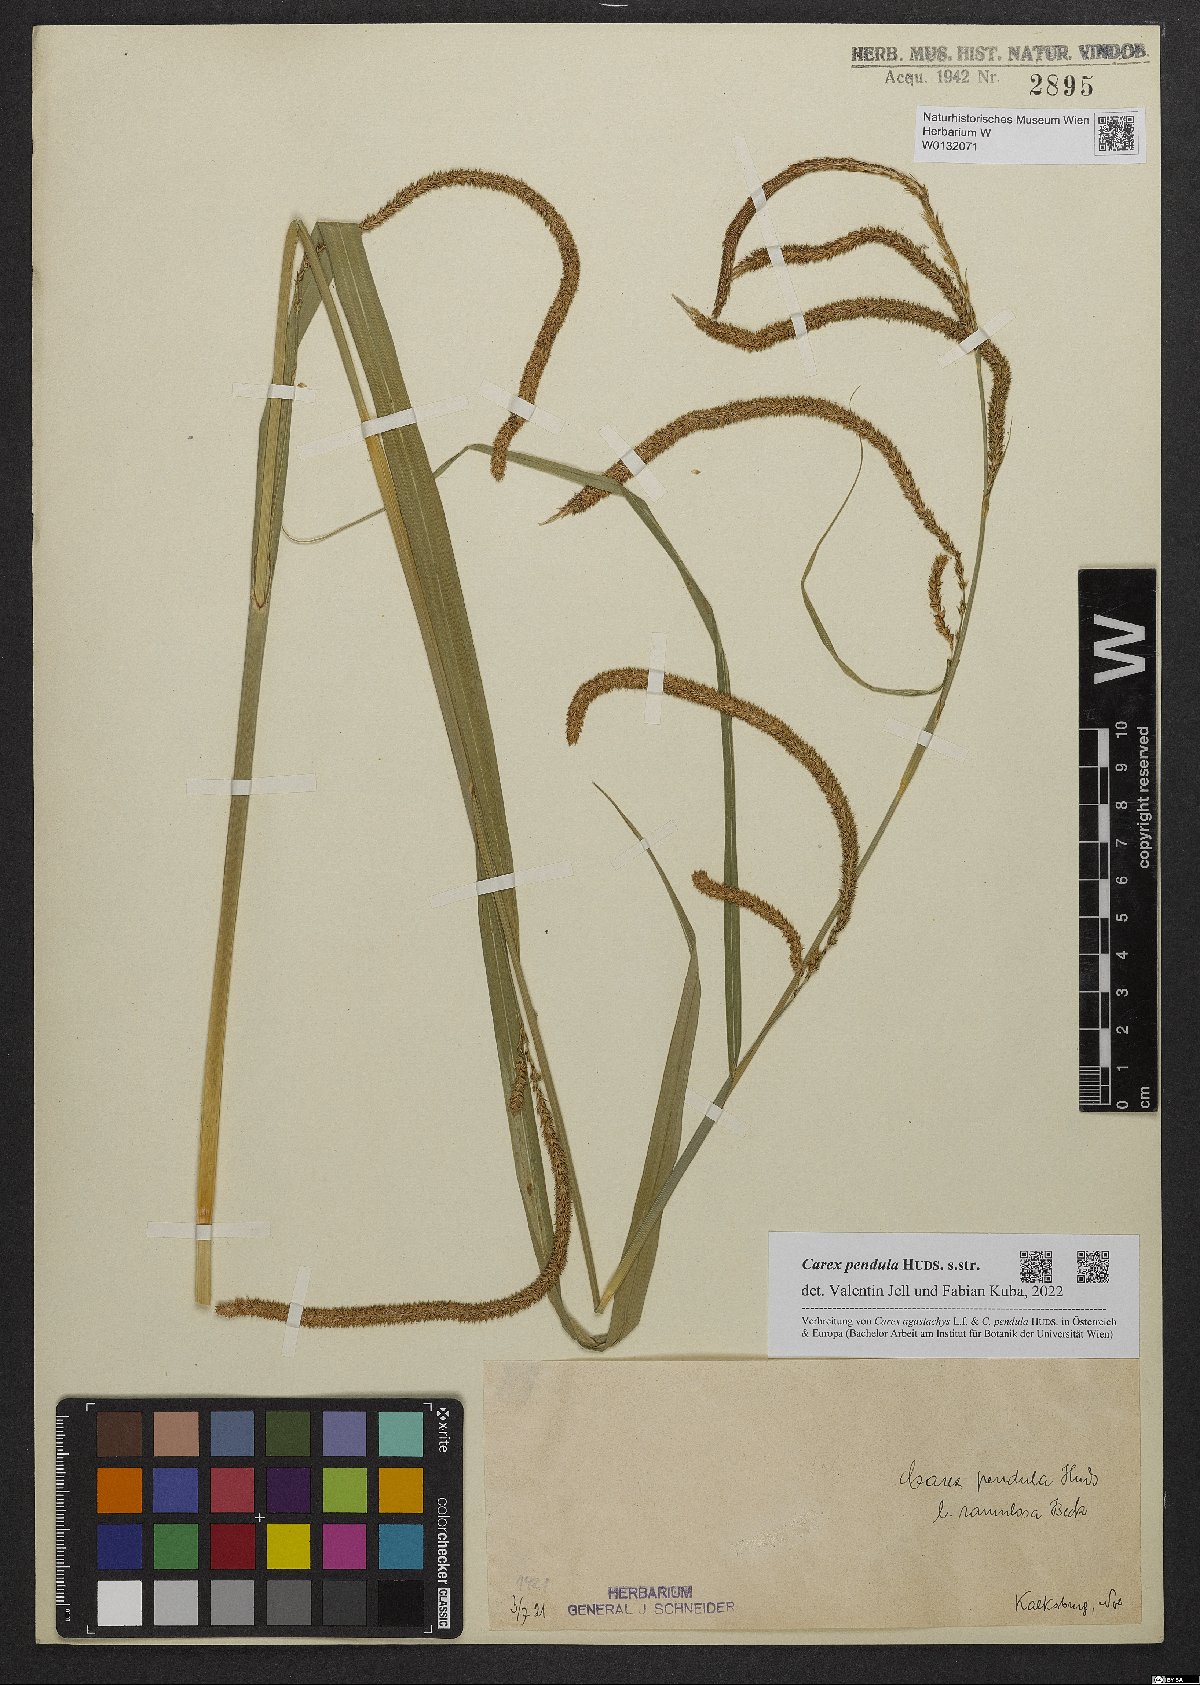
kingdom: Plantae
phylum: Tracheophyta
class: Liliopsida
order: Poales
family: Cyperaceae
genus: Carex
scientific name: Carex pendula
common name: Pendulous sedge
